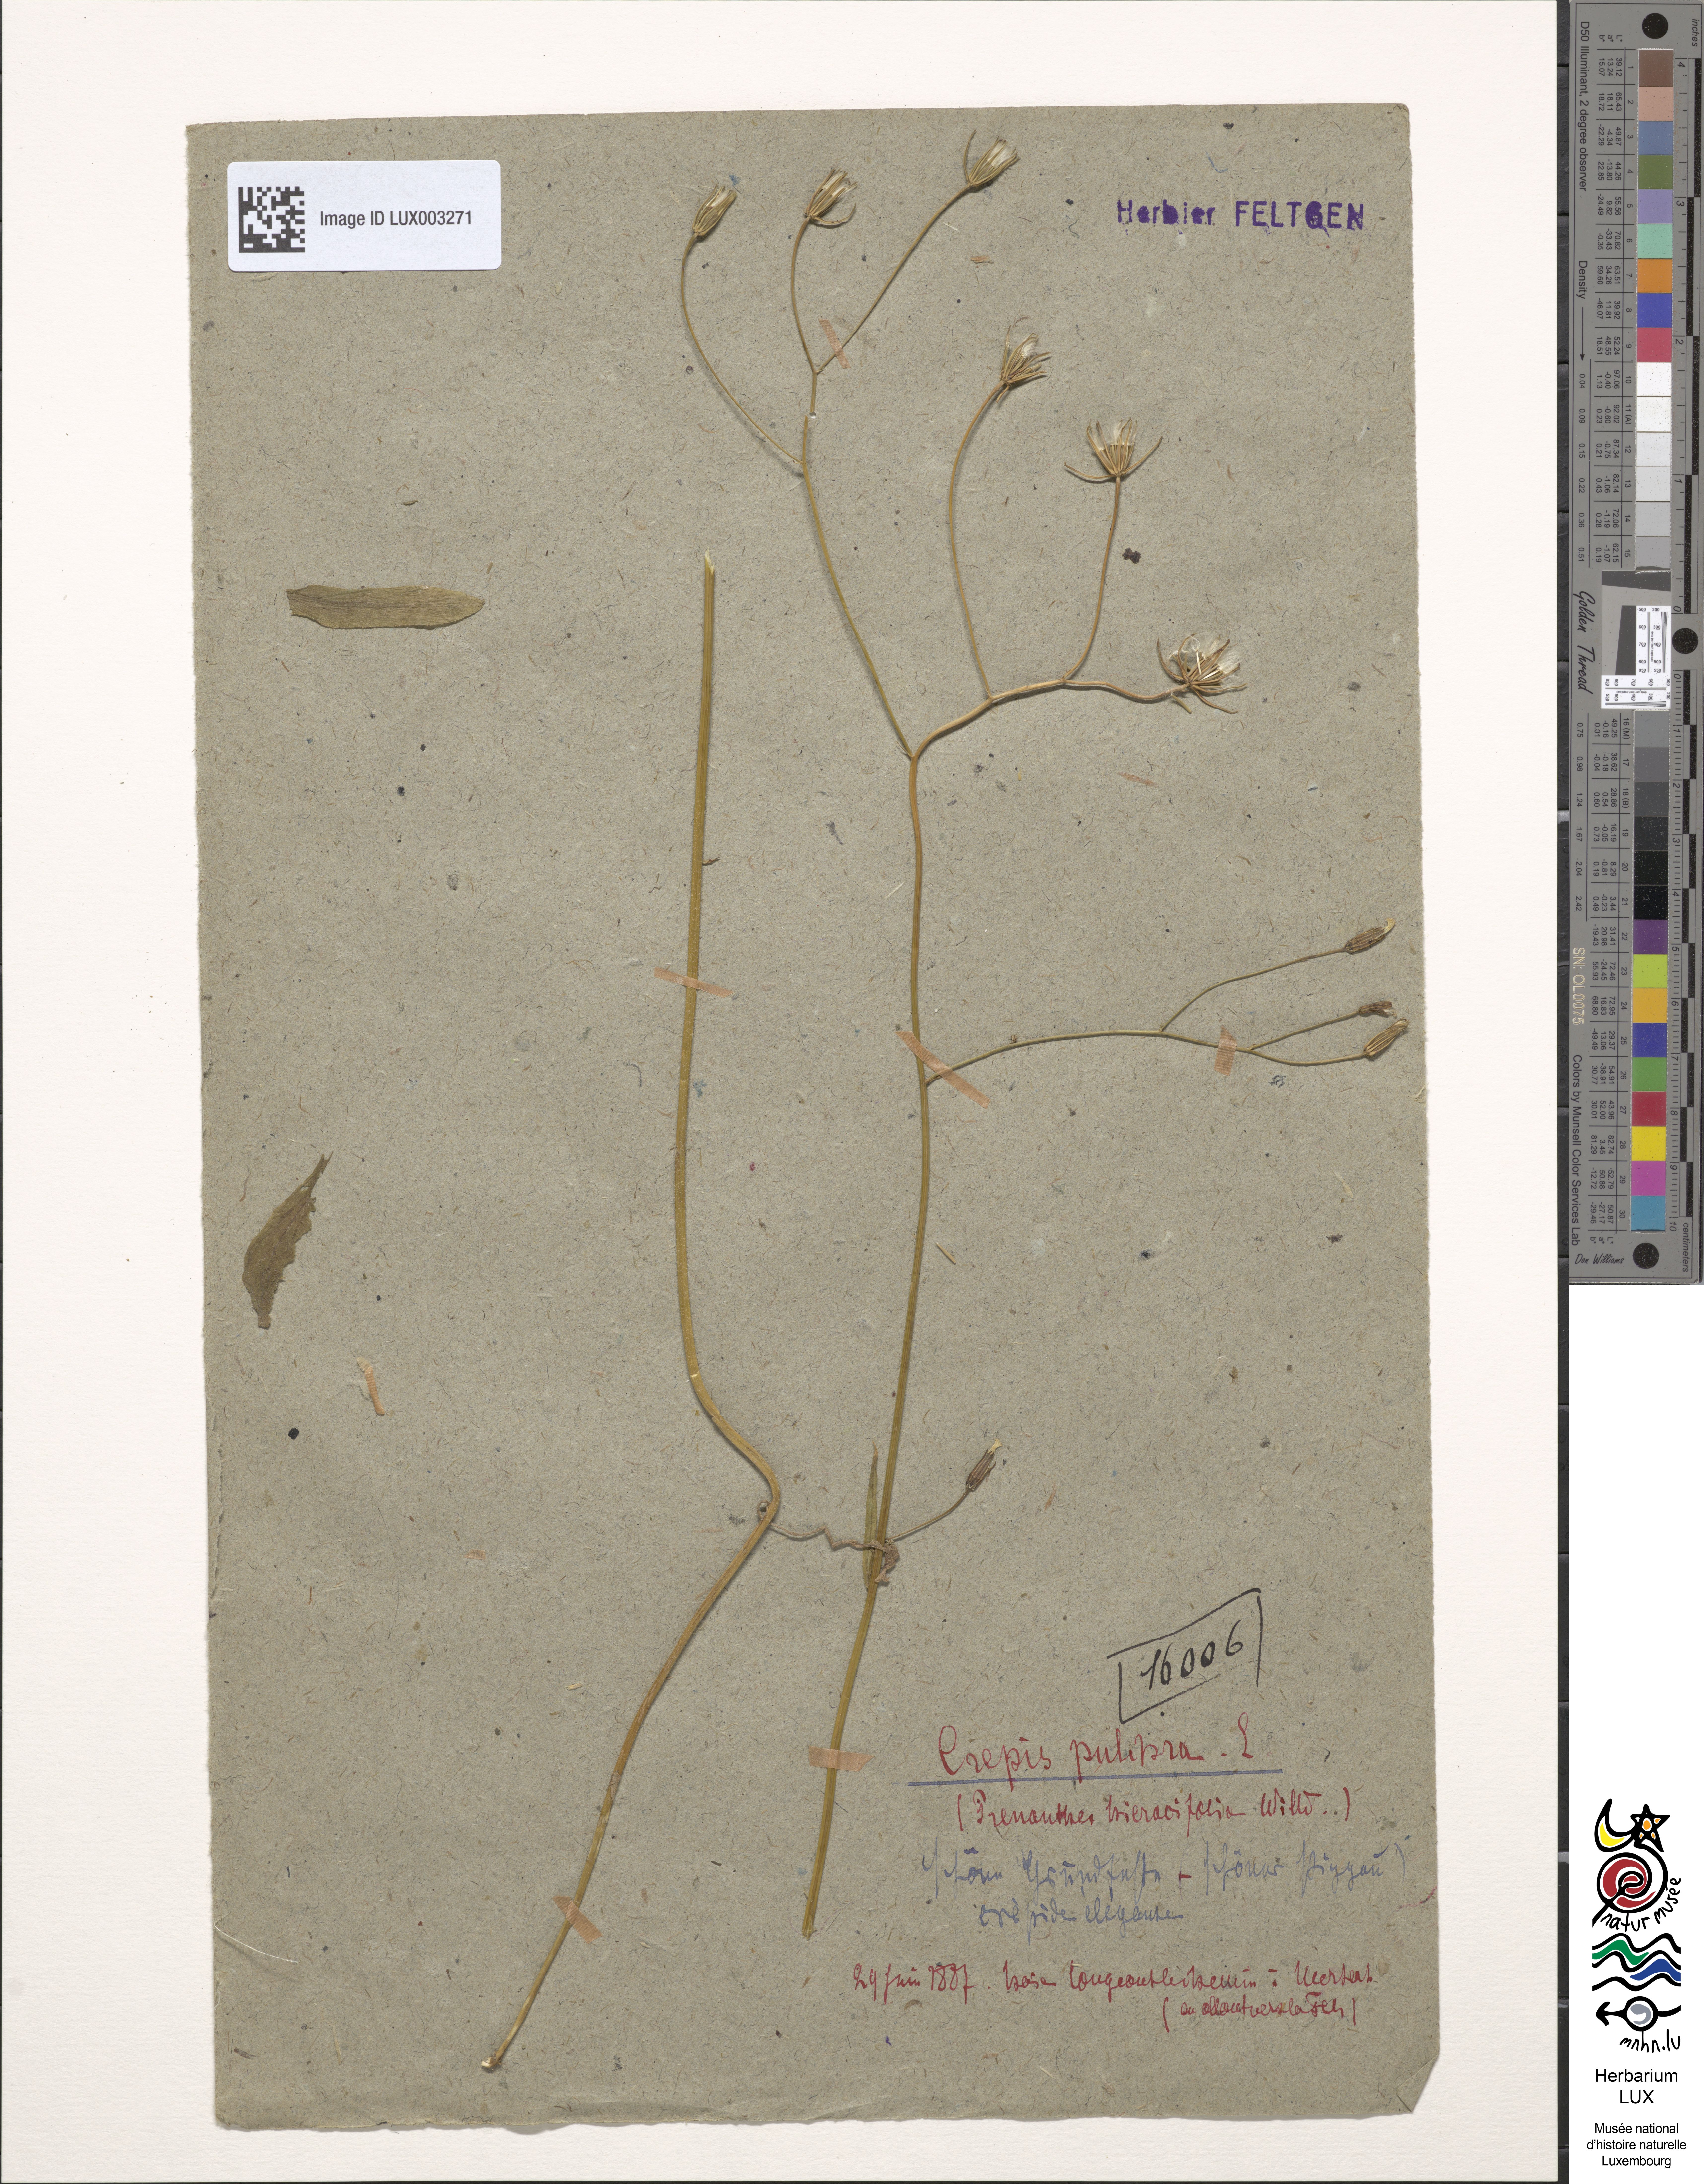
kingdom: Plantae
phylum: Tracheophyta
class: Magnoliopsida
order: Asterales
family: Asteraceae
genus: Crepis
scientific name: Crepis pulchra
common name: Hawk's-beard
